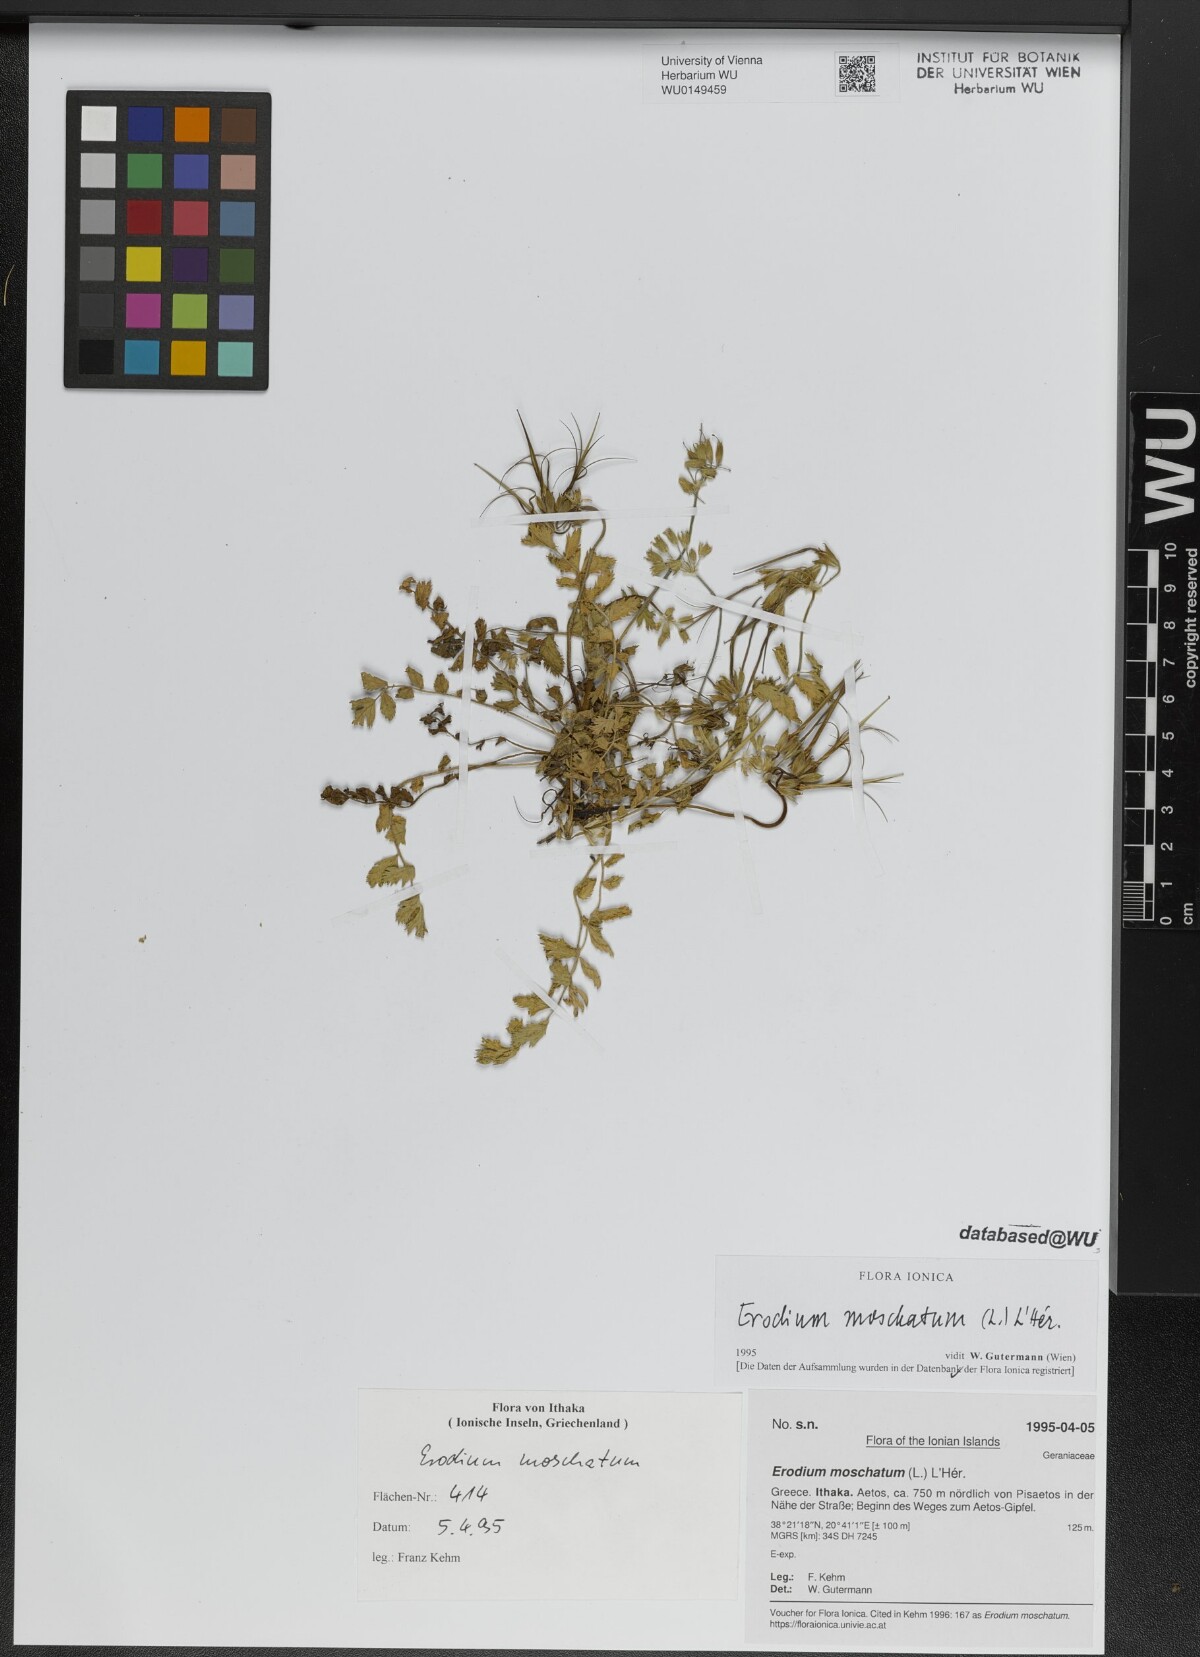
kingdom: Plantae
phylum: Tracheophyta
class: Magnoliopsida
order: Geraniales
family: Geraniaceae
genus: Erodium
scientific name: Erodium moschatum
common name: Musk stork's-bill
